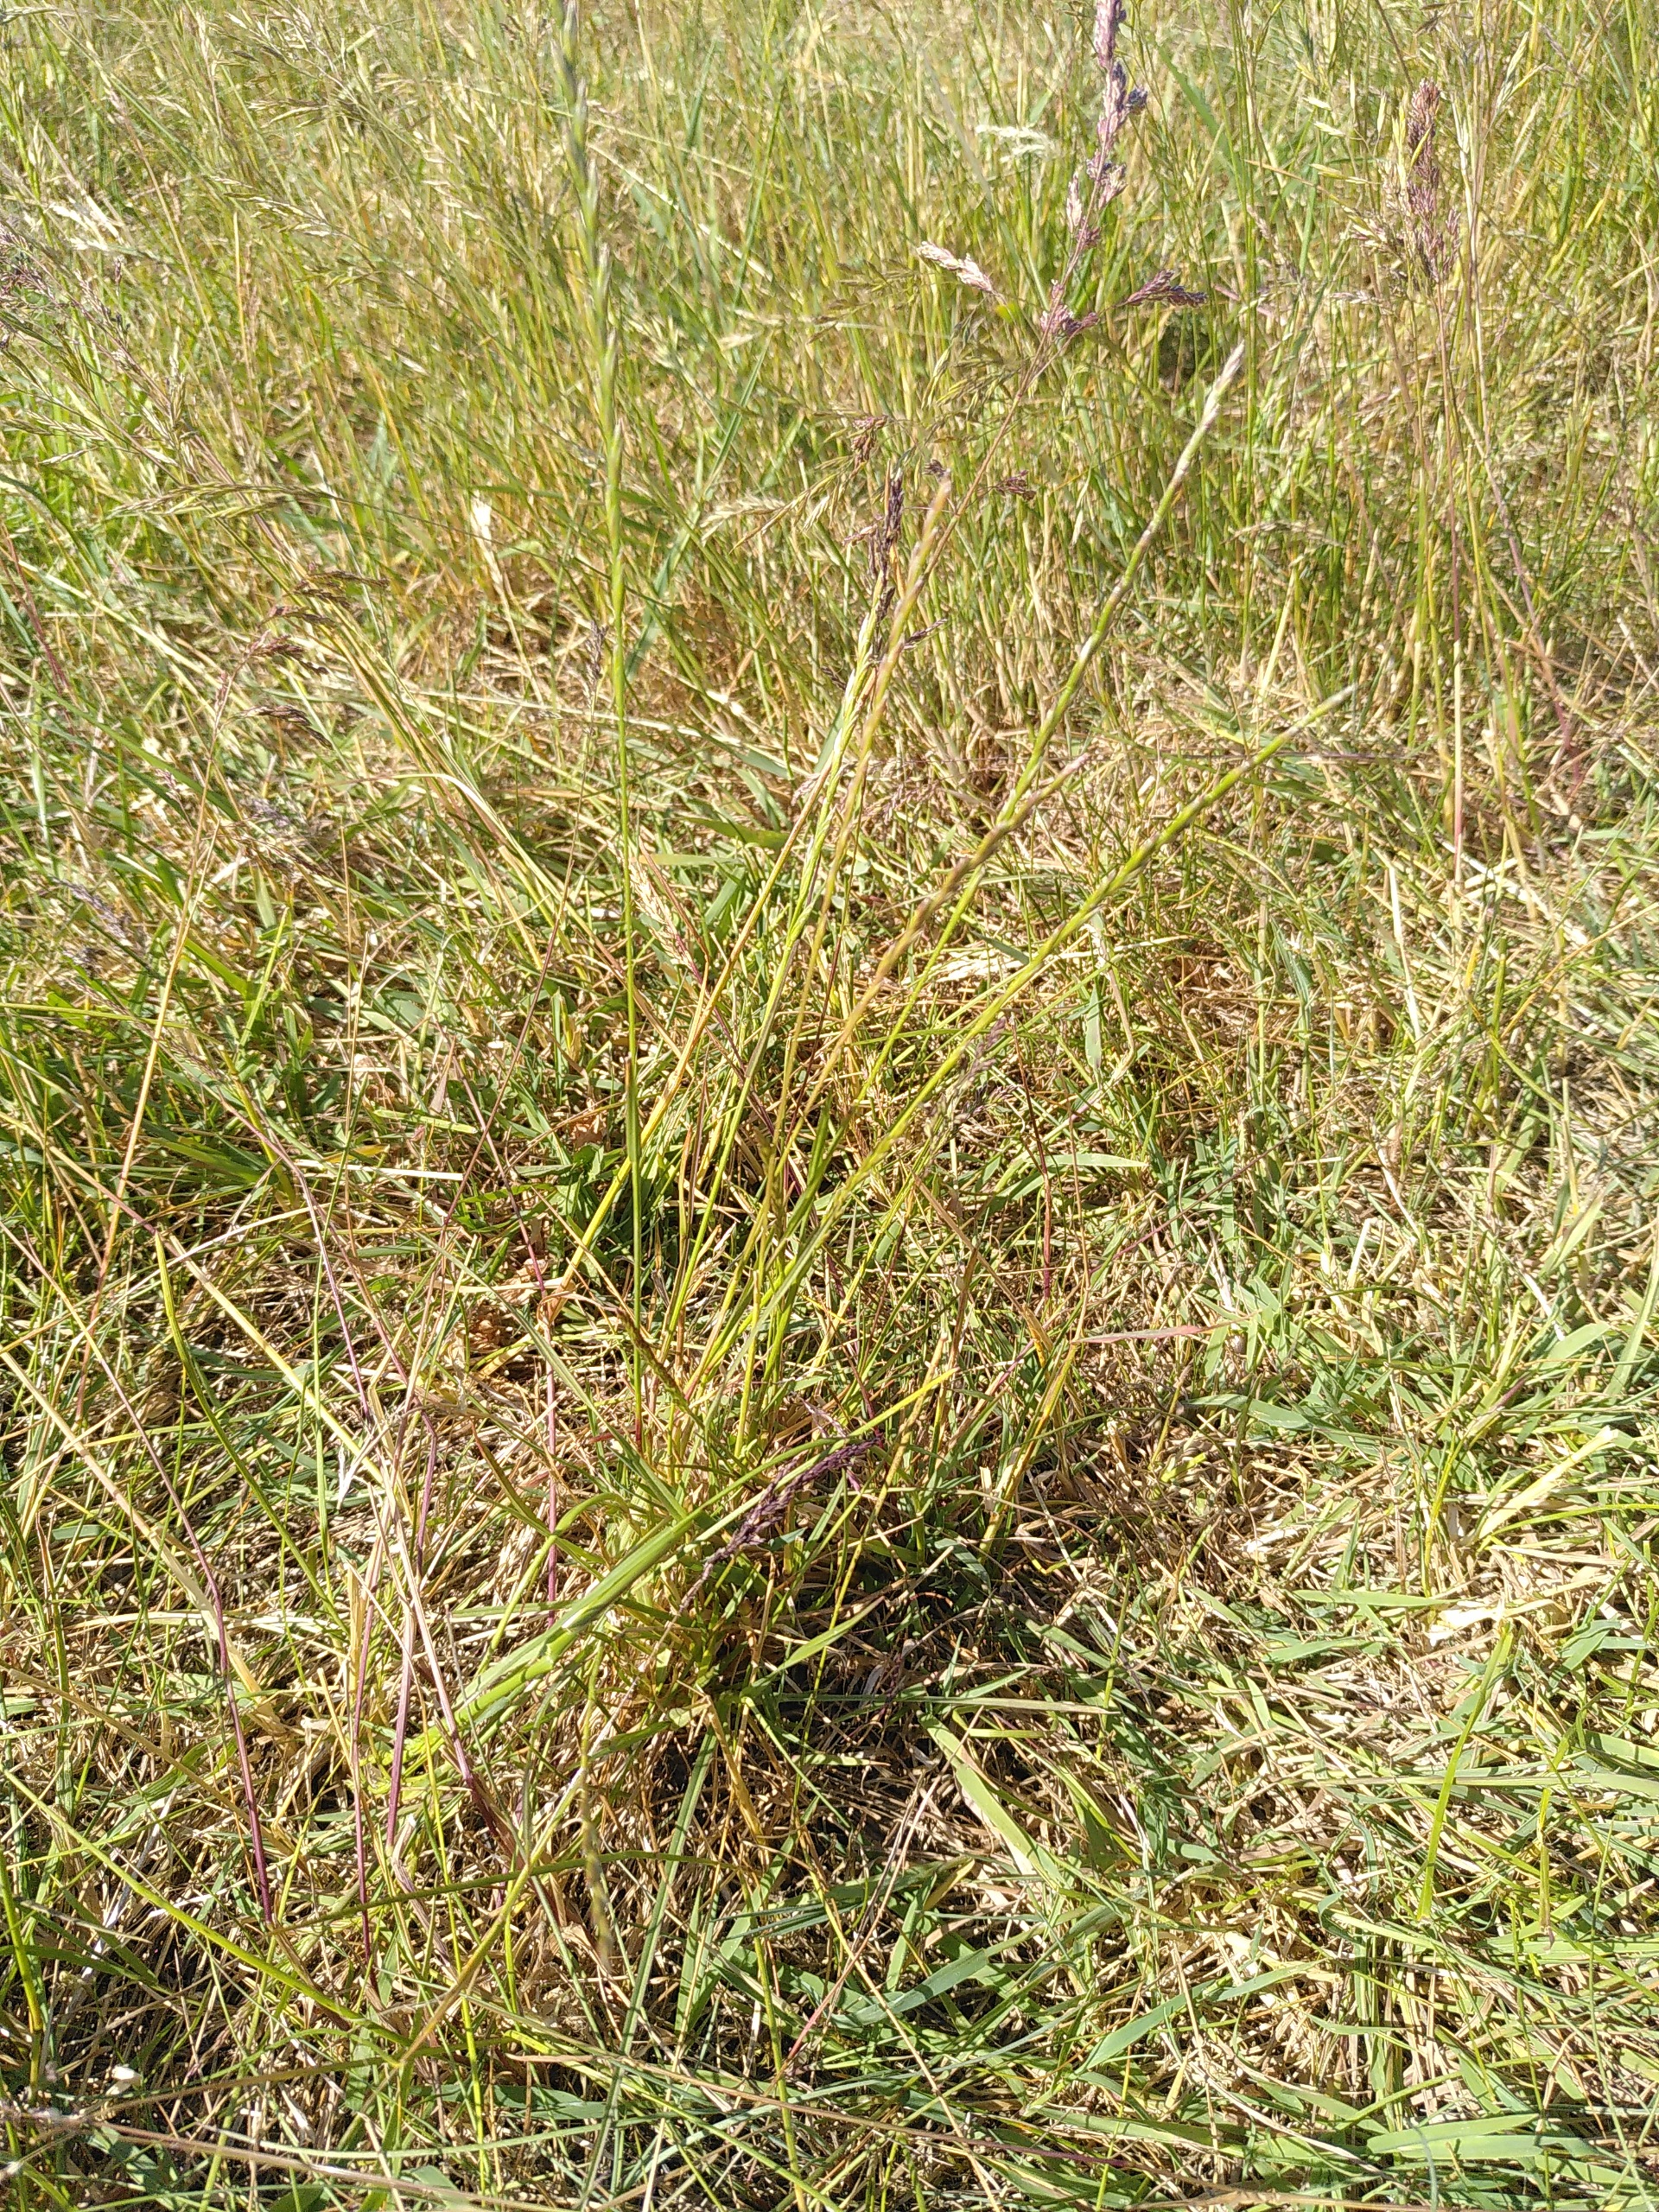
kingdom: Plantae
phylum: Tracheophyta
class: Liliopsida
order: Poales
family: Poaceae
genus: Lolium
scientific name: Lolium perenne
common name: Almindelig rajgræs
